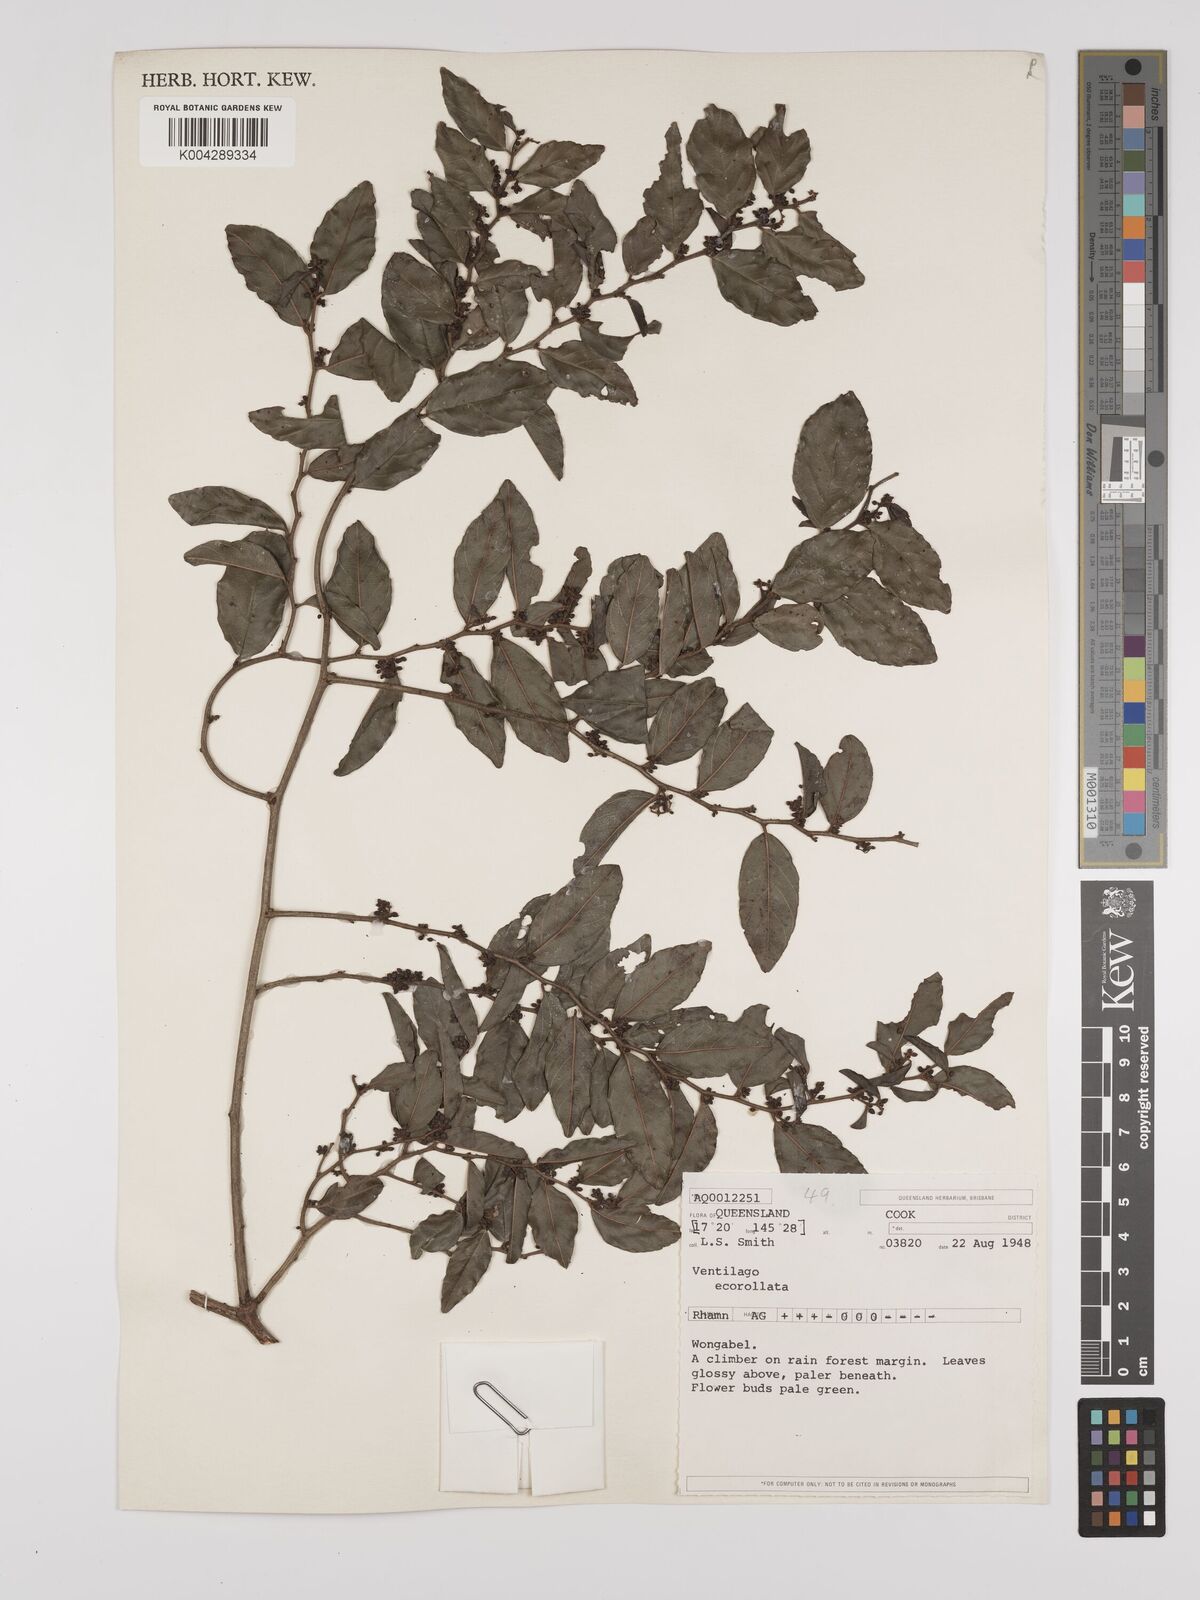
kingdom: Plantae
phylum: Tracheophyta
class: Magnoliopsida
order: Rosales
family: Rhamnaceae
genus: Ventilago
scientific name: Ventilago ecorollata
